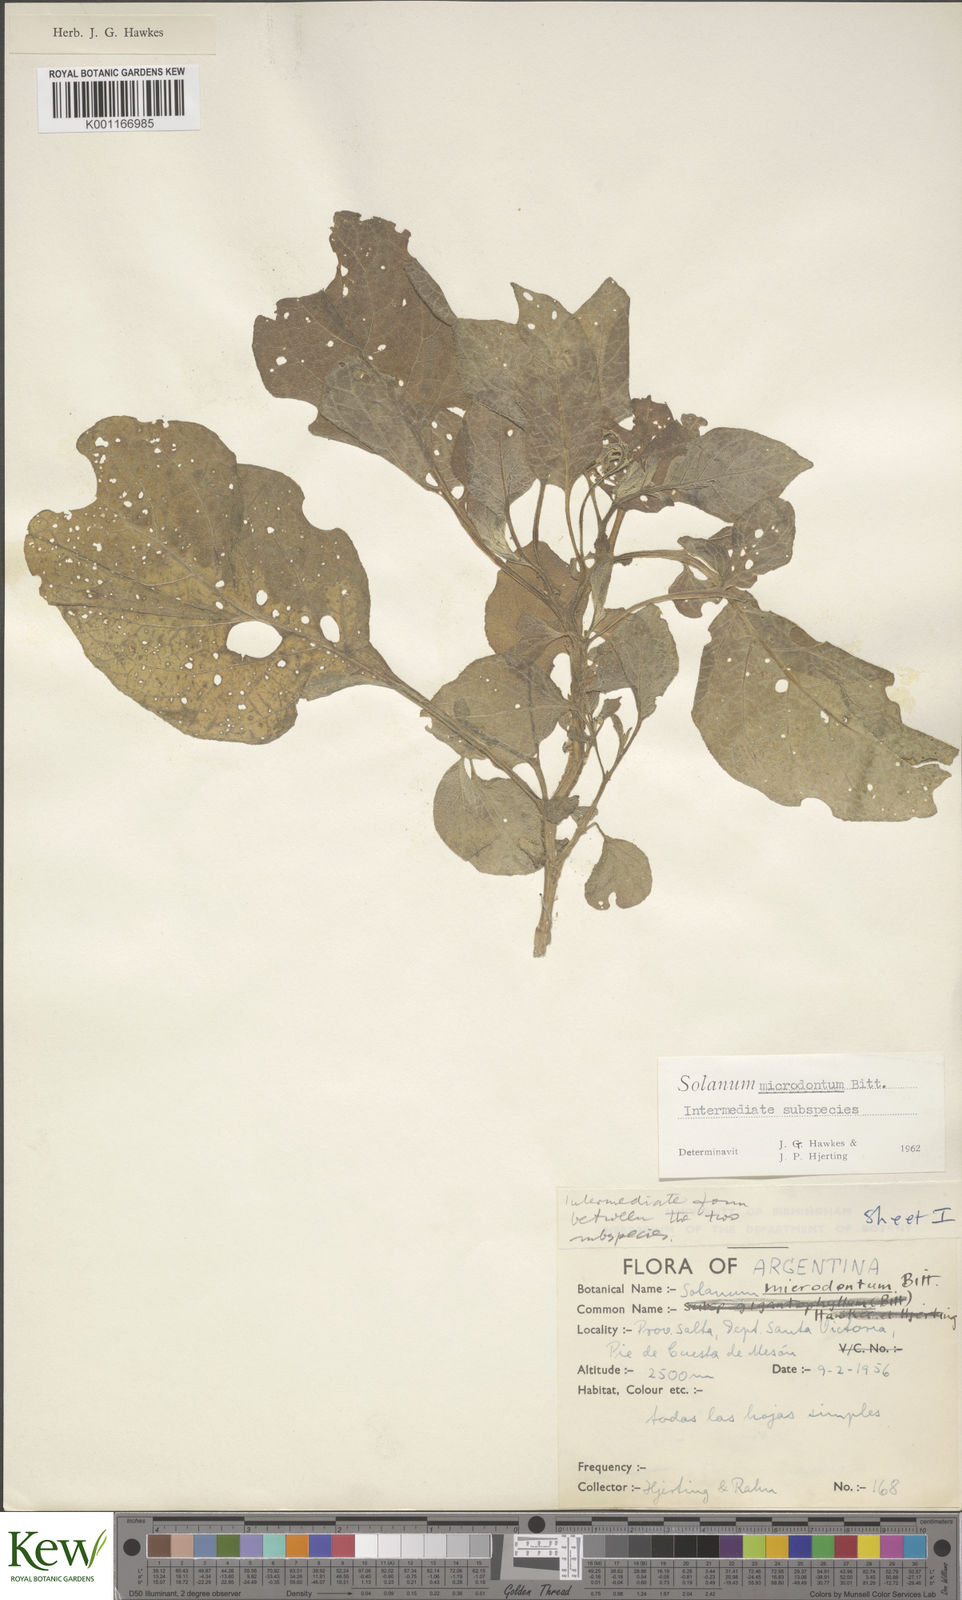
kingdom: Plantae
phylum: Tracheophyta
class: Magnoliopsida
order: Solanales
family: Solanaceae
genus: Solanum
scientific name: Solanum microdontum
